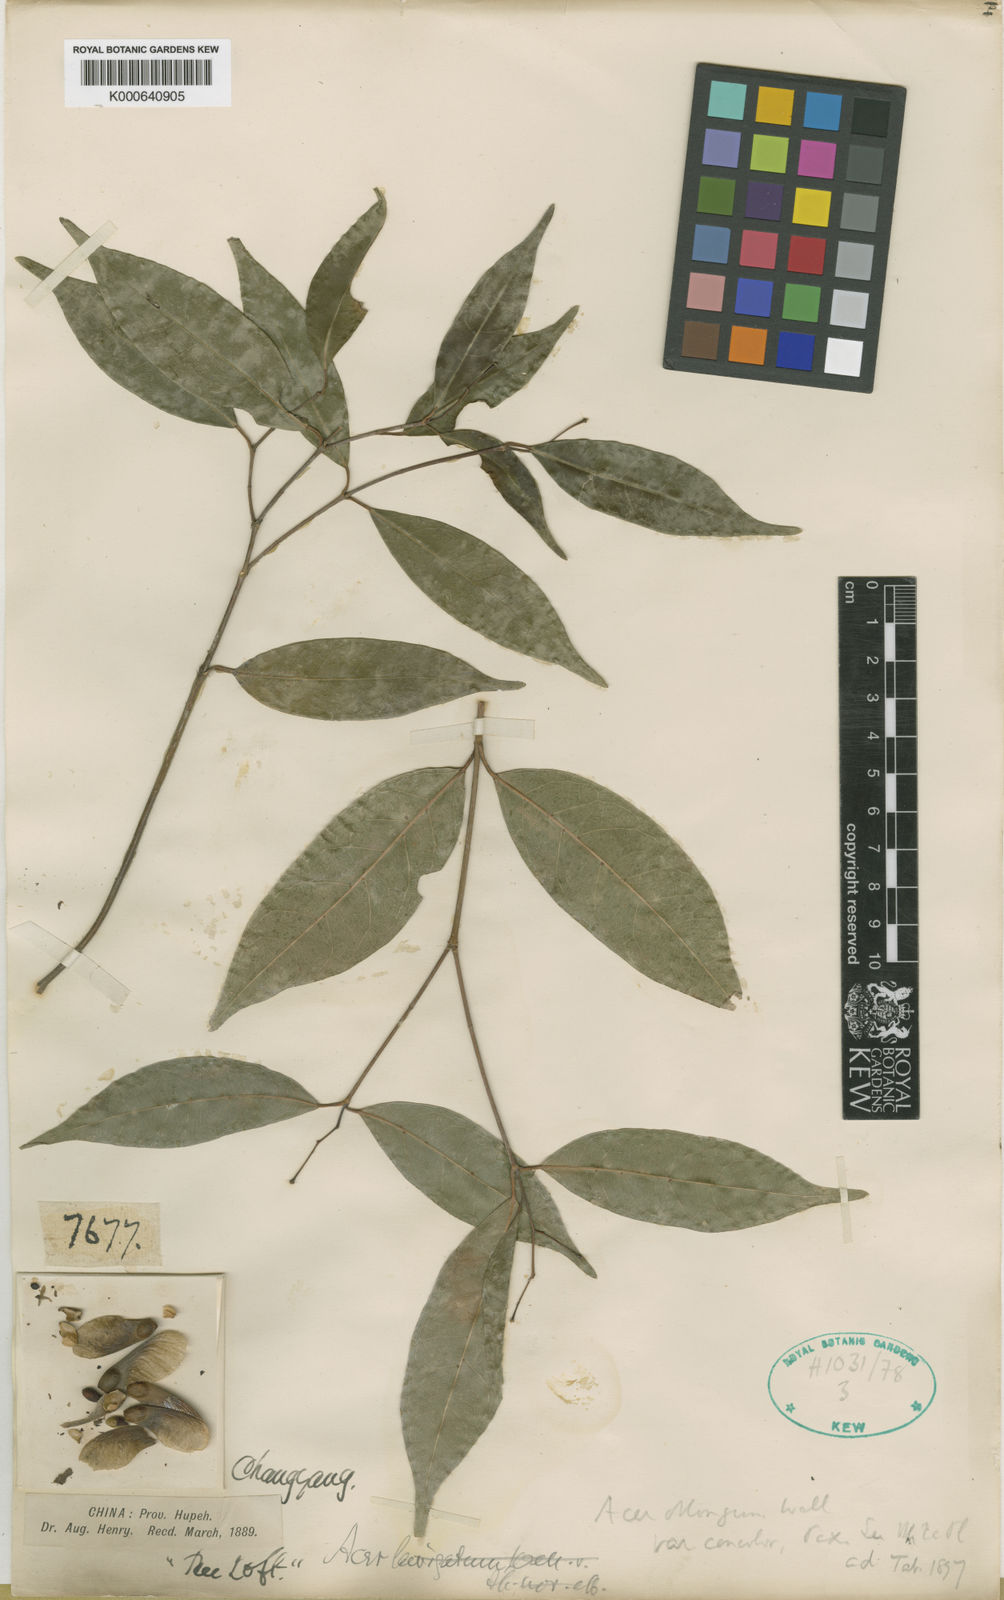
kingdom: Plantae
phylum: Tracheophyta
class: Magnoliopsida
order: Sapindales
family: Sapindaceae
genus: Acer
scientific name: Acer fabri
